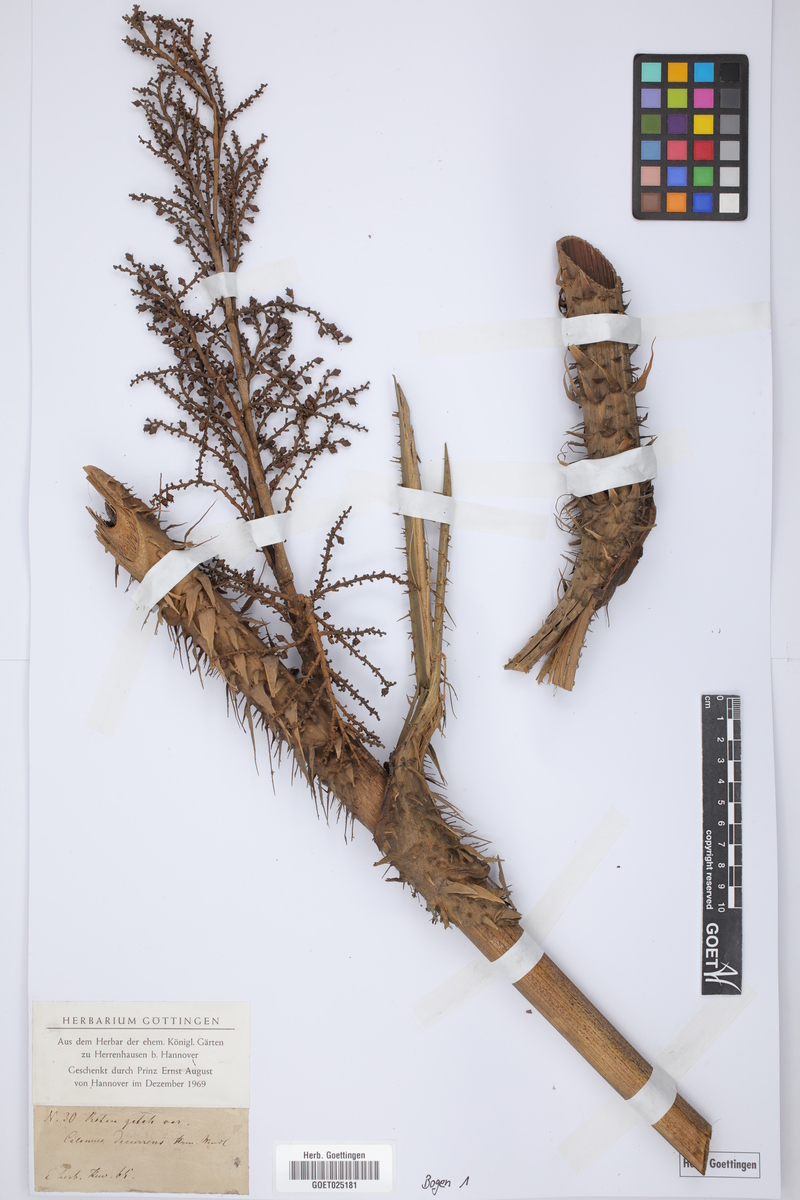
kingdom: Plantae
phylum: Tracheophyta
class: Liliopsida
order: Arecales
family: Arecaceae
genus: Calamus
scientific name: Calamus
